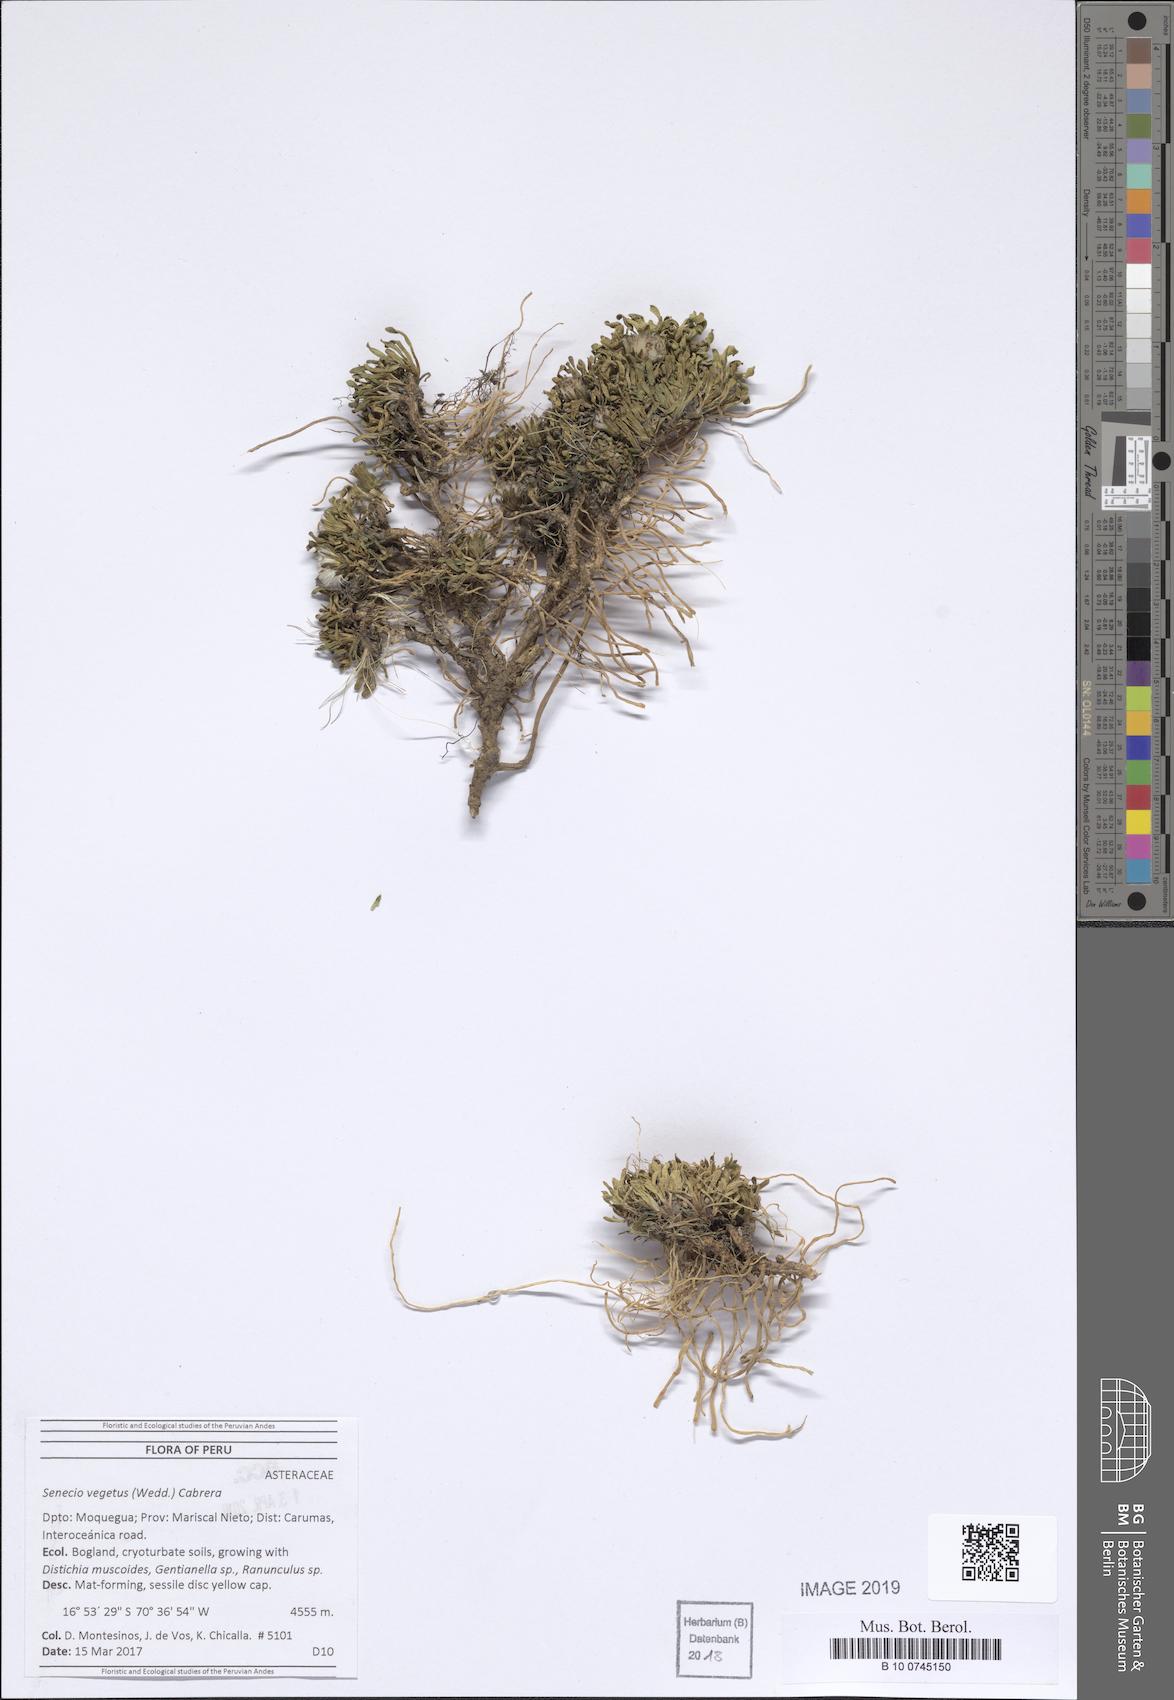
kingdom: Plantae
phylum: Tracheophyta
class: Magnoliopsida
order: Asterales
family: Asteraceae
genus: Senecio
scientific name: Senecio algens
